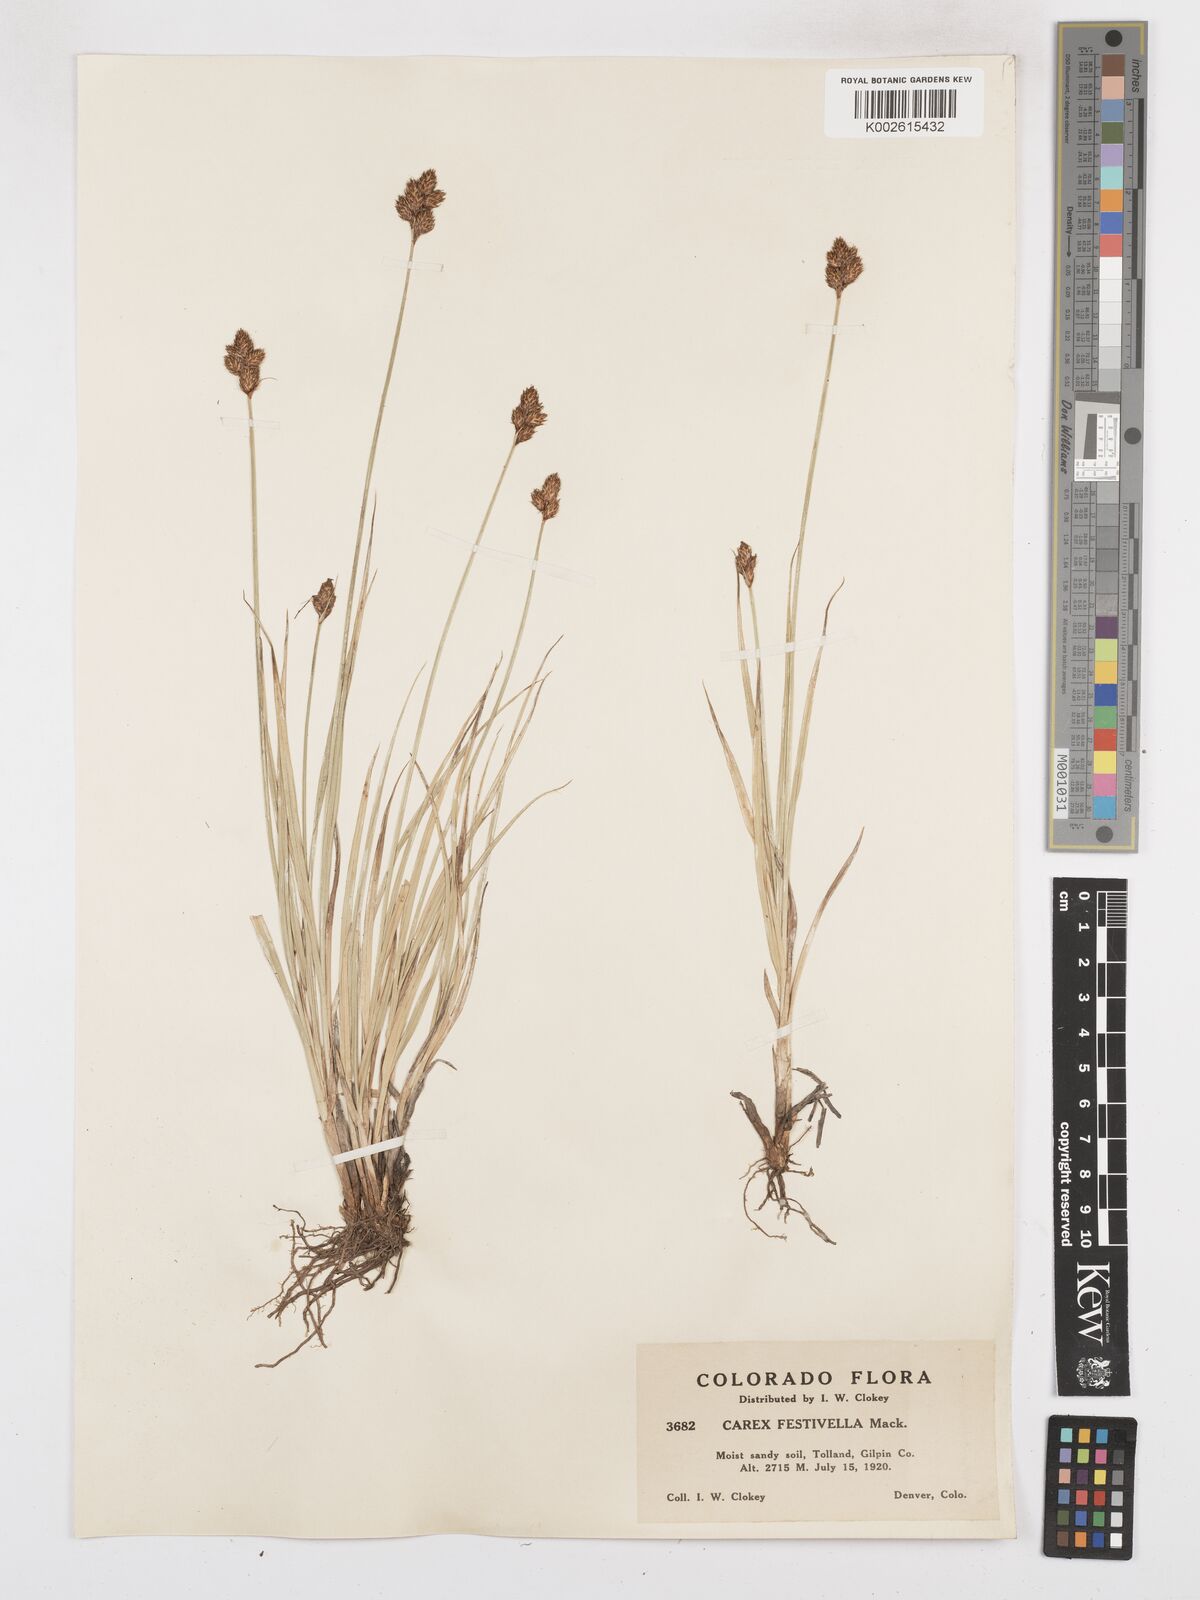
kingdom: Plantae
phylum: Tracheophyta
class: Liliopsida
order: Poales
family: Cyperaceae
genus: Carex
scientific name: Carex microptera
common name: Oval-headed sedge
